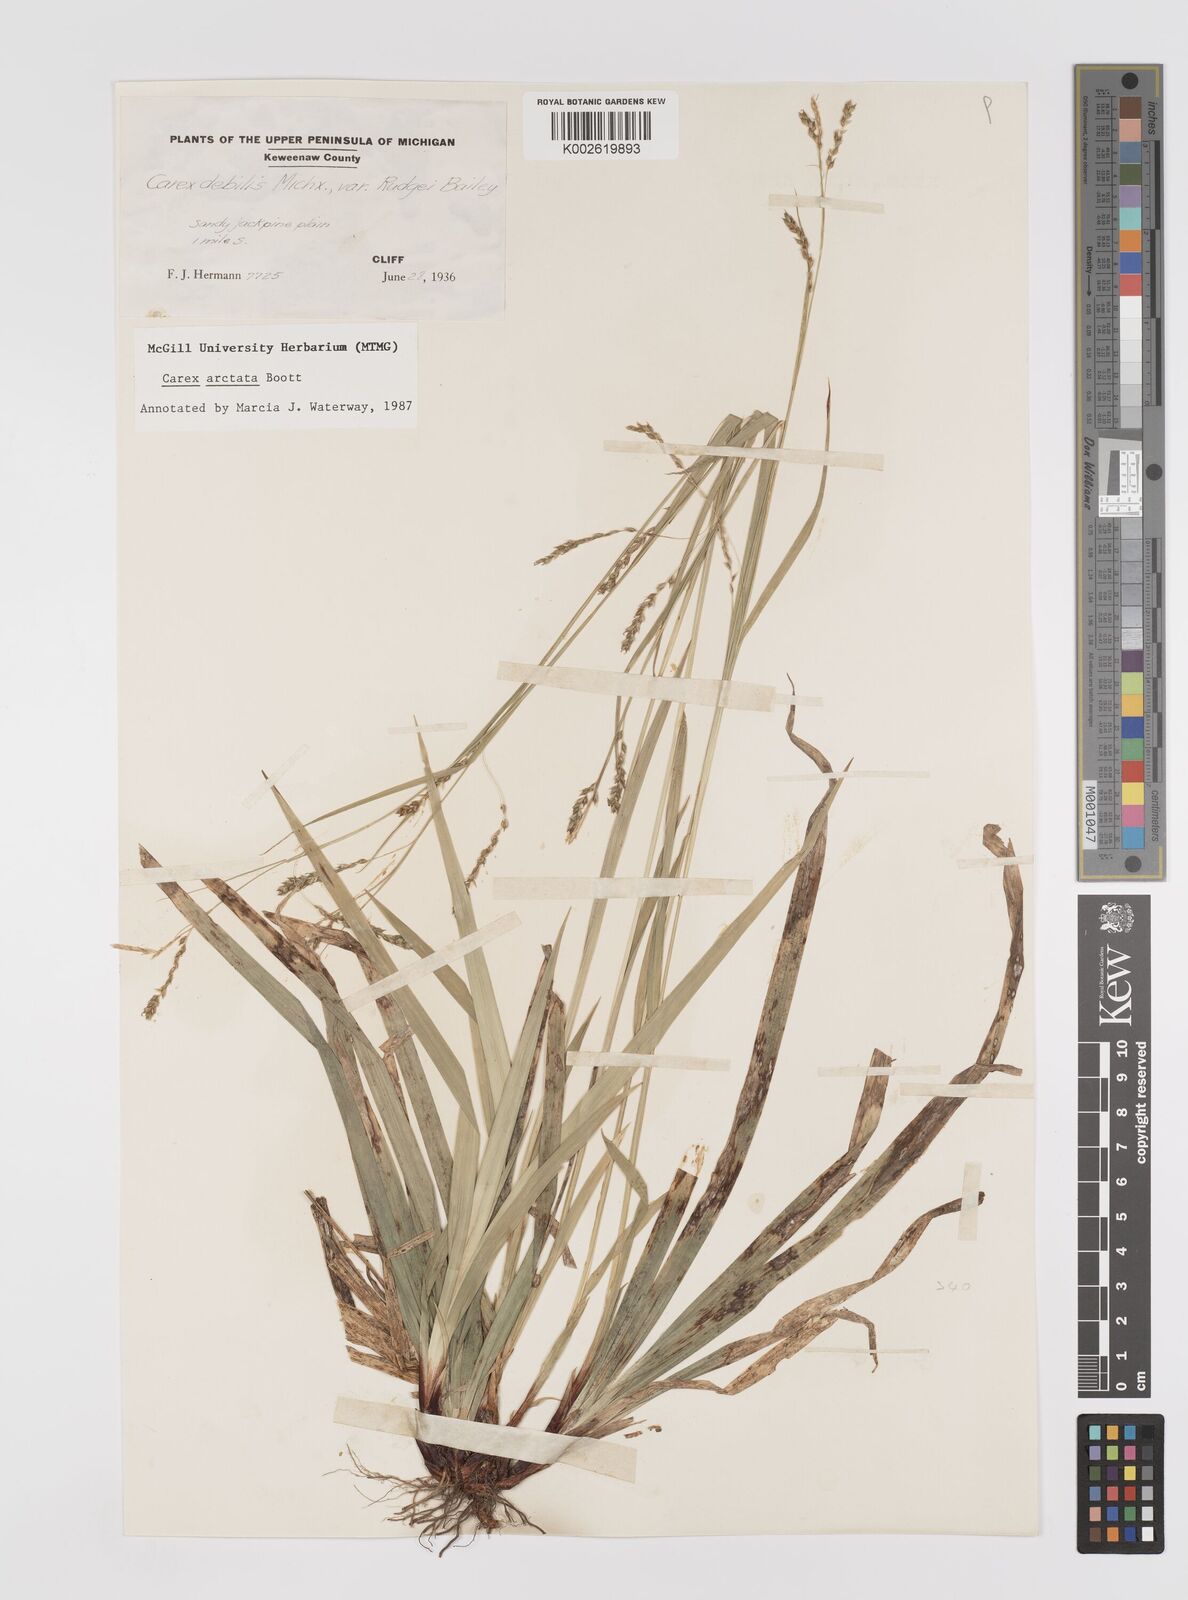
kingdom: Plantae
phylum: Tracheophyta
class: Liliopsida
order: Poales
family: Cyperaceae
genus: Carex
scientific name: Carex arctata
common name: Black sedge
